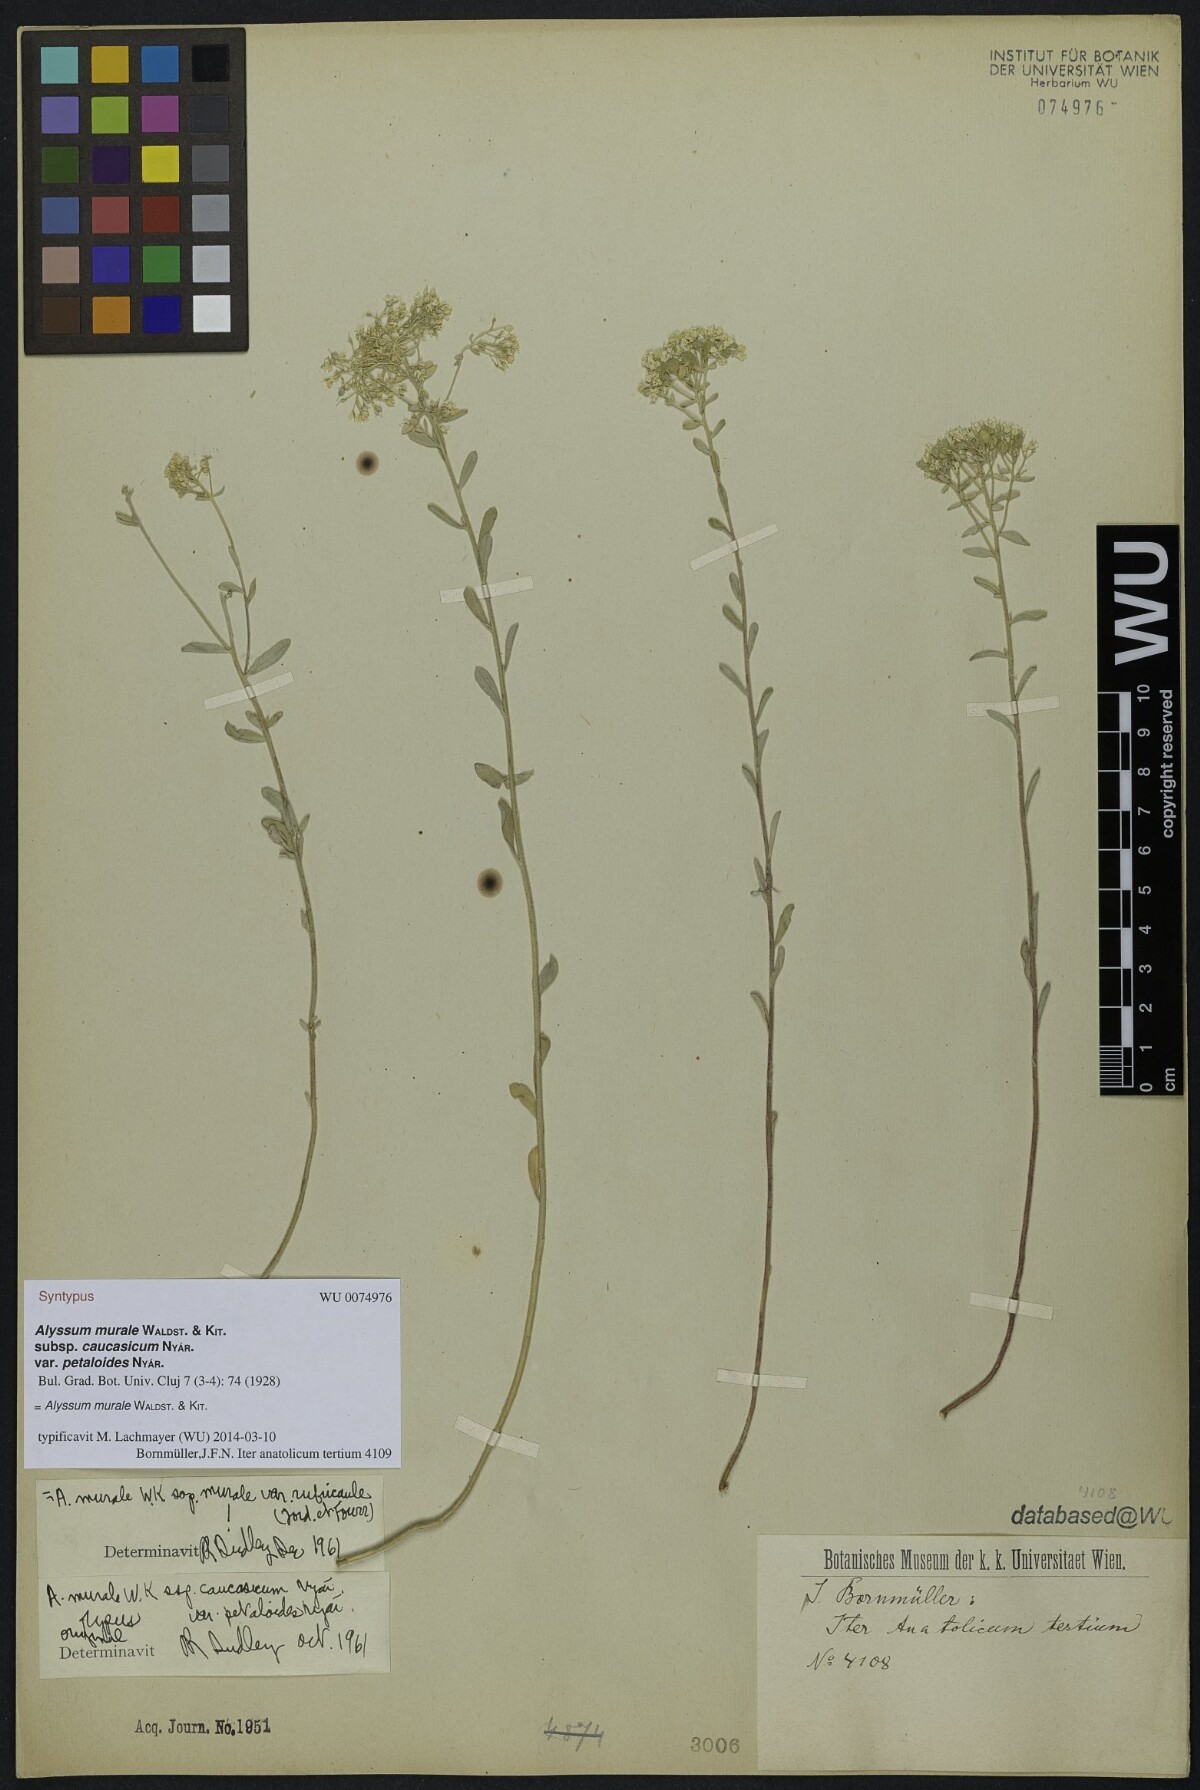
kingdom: Plantae
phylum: Tracheophyta
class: Magnoliopsida
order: Brassicales
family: Brassicaceae
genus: Odontarrhena
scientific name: Odontarrhena muralis
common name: Rock alyssum
